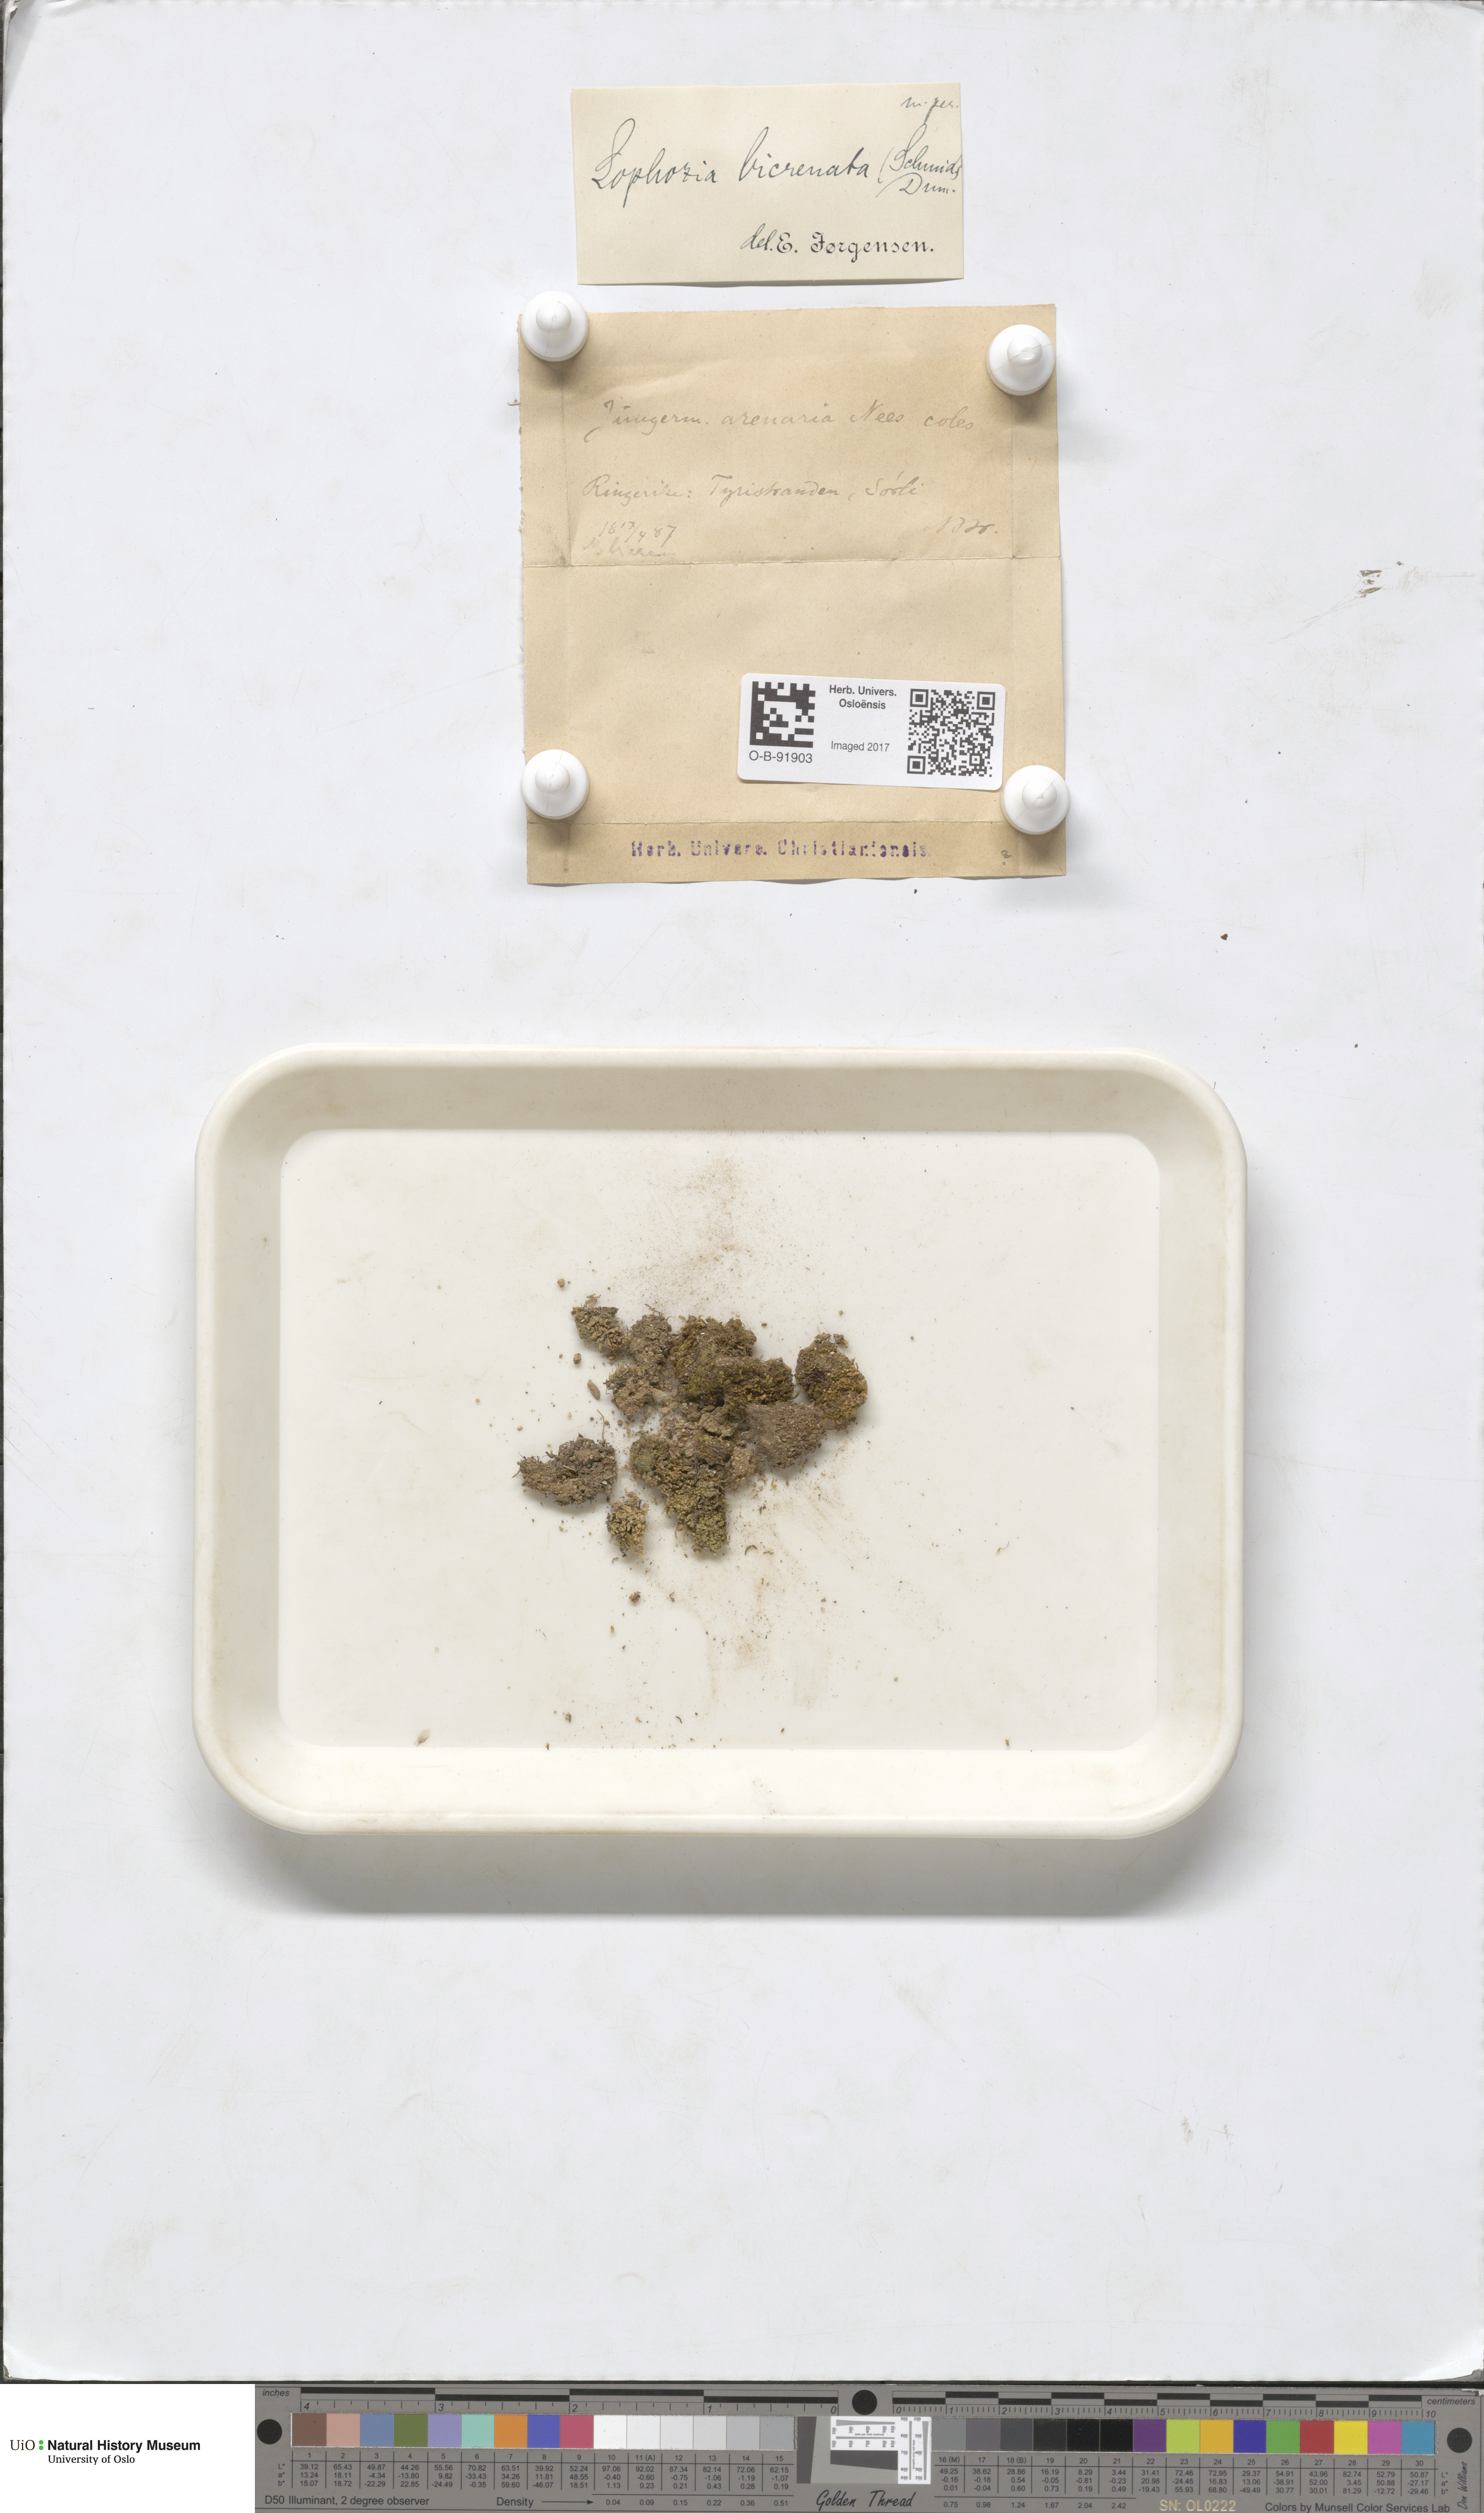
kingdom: Plantae
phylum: Marchantiophyta
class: Jungermanniopsida
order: Jungermanniales
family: Anastrophyllaceae
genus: Isopaches
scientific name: Isopaches bicrenatus
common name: Lesser notchwort
